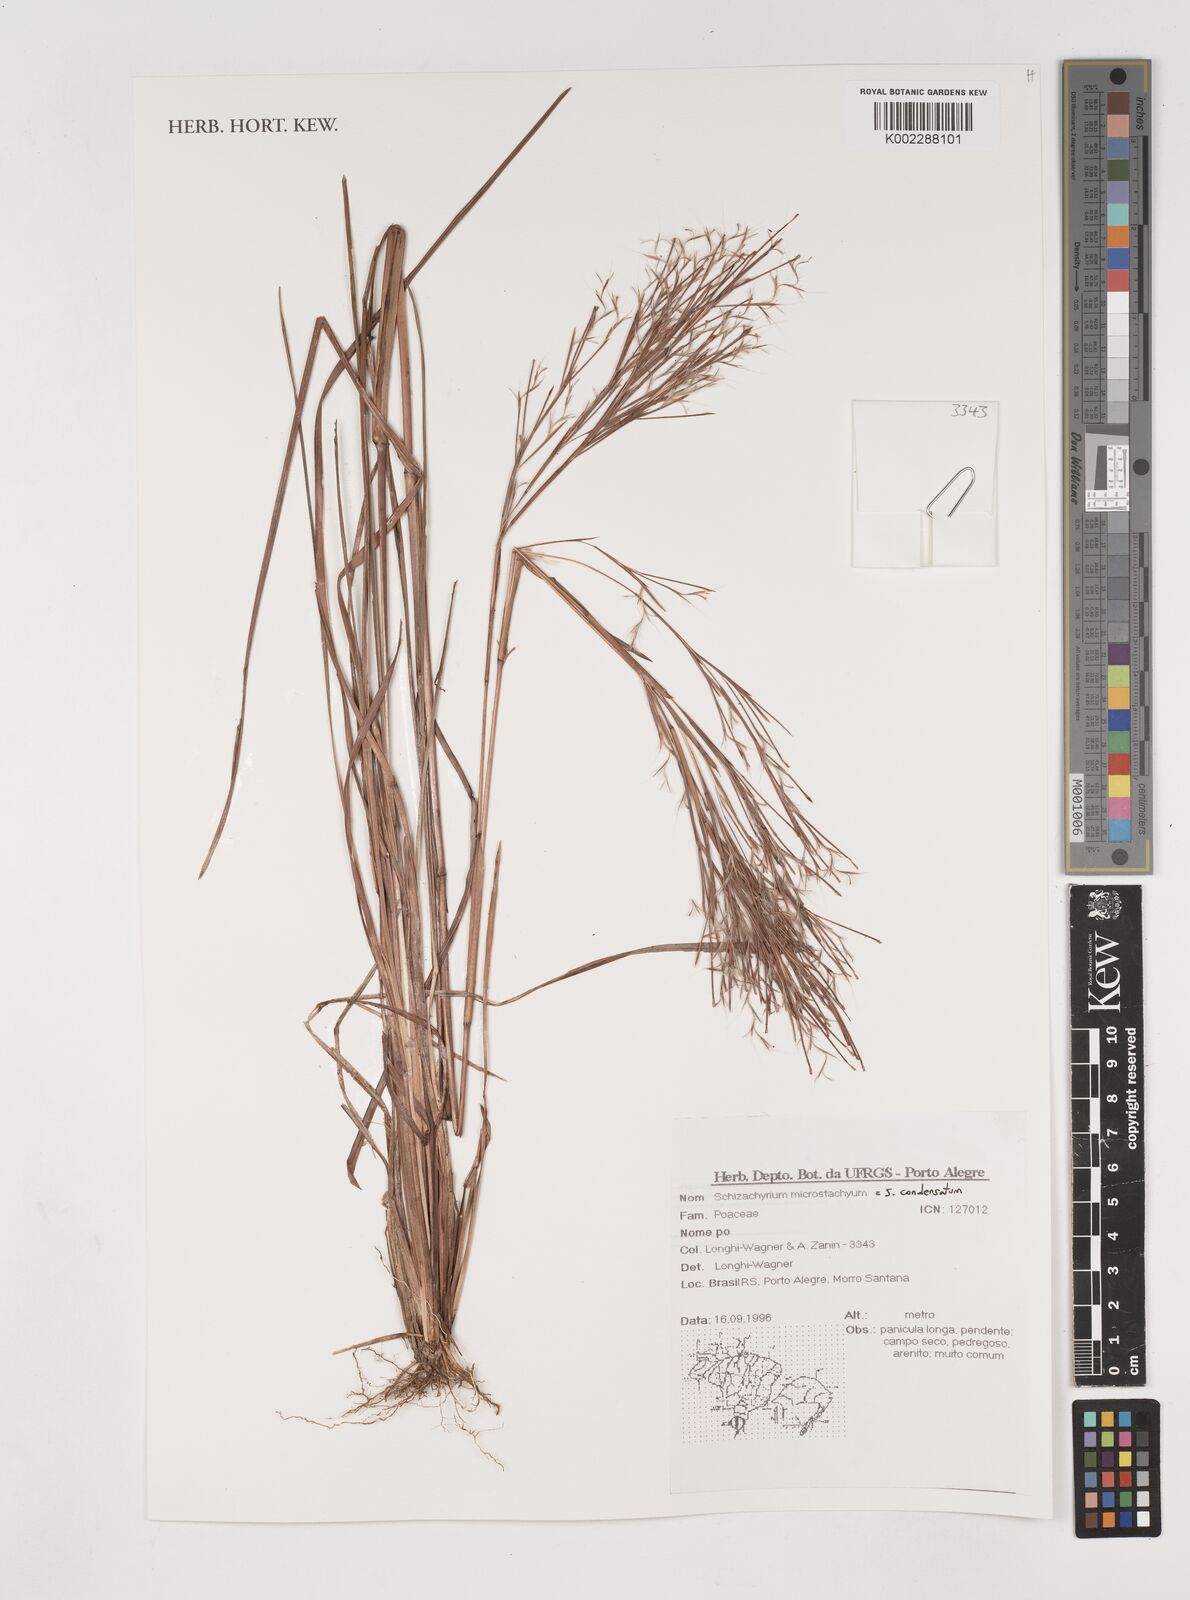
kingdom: Plantae
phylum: Tracheophyta
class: Liliopsida
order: Poales
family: Poaceae
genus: Schizachyrium
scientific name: Schizachyrium condensatum
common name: Bush beardgrass
